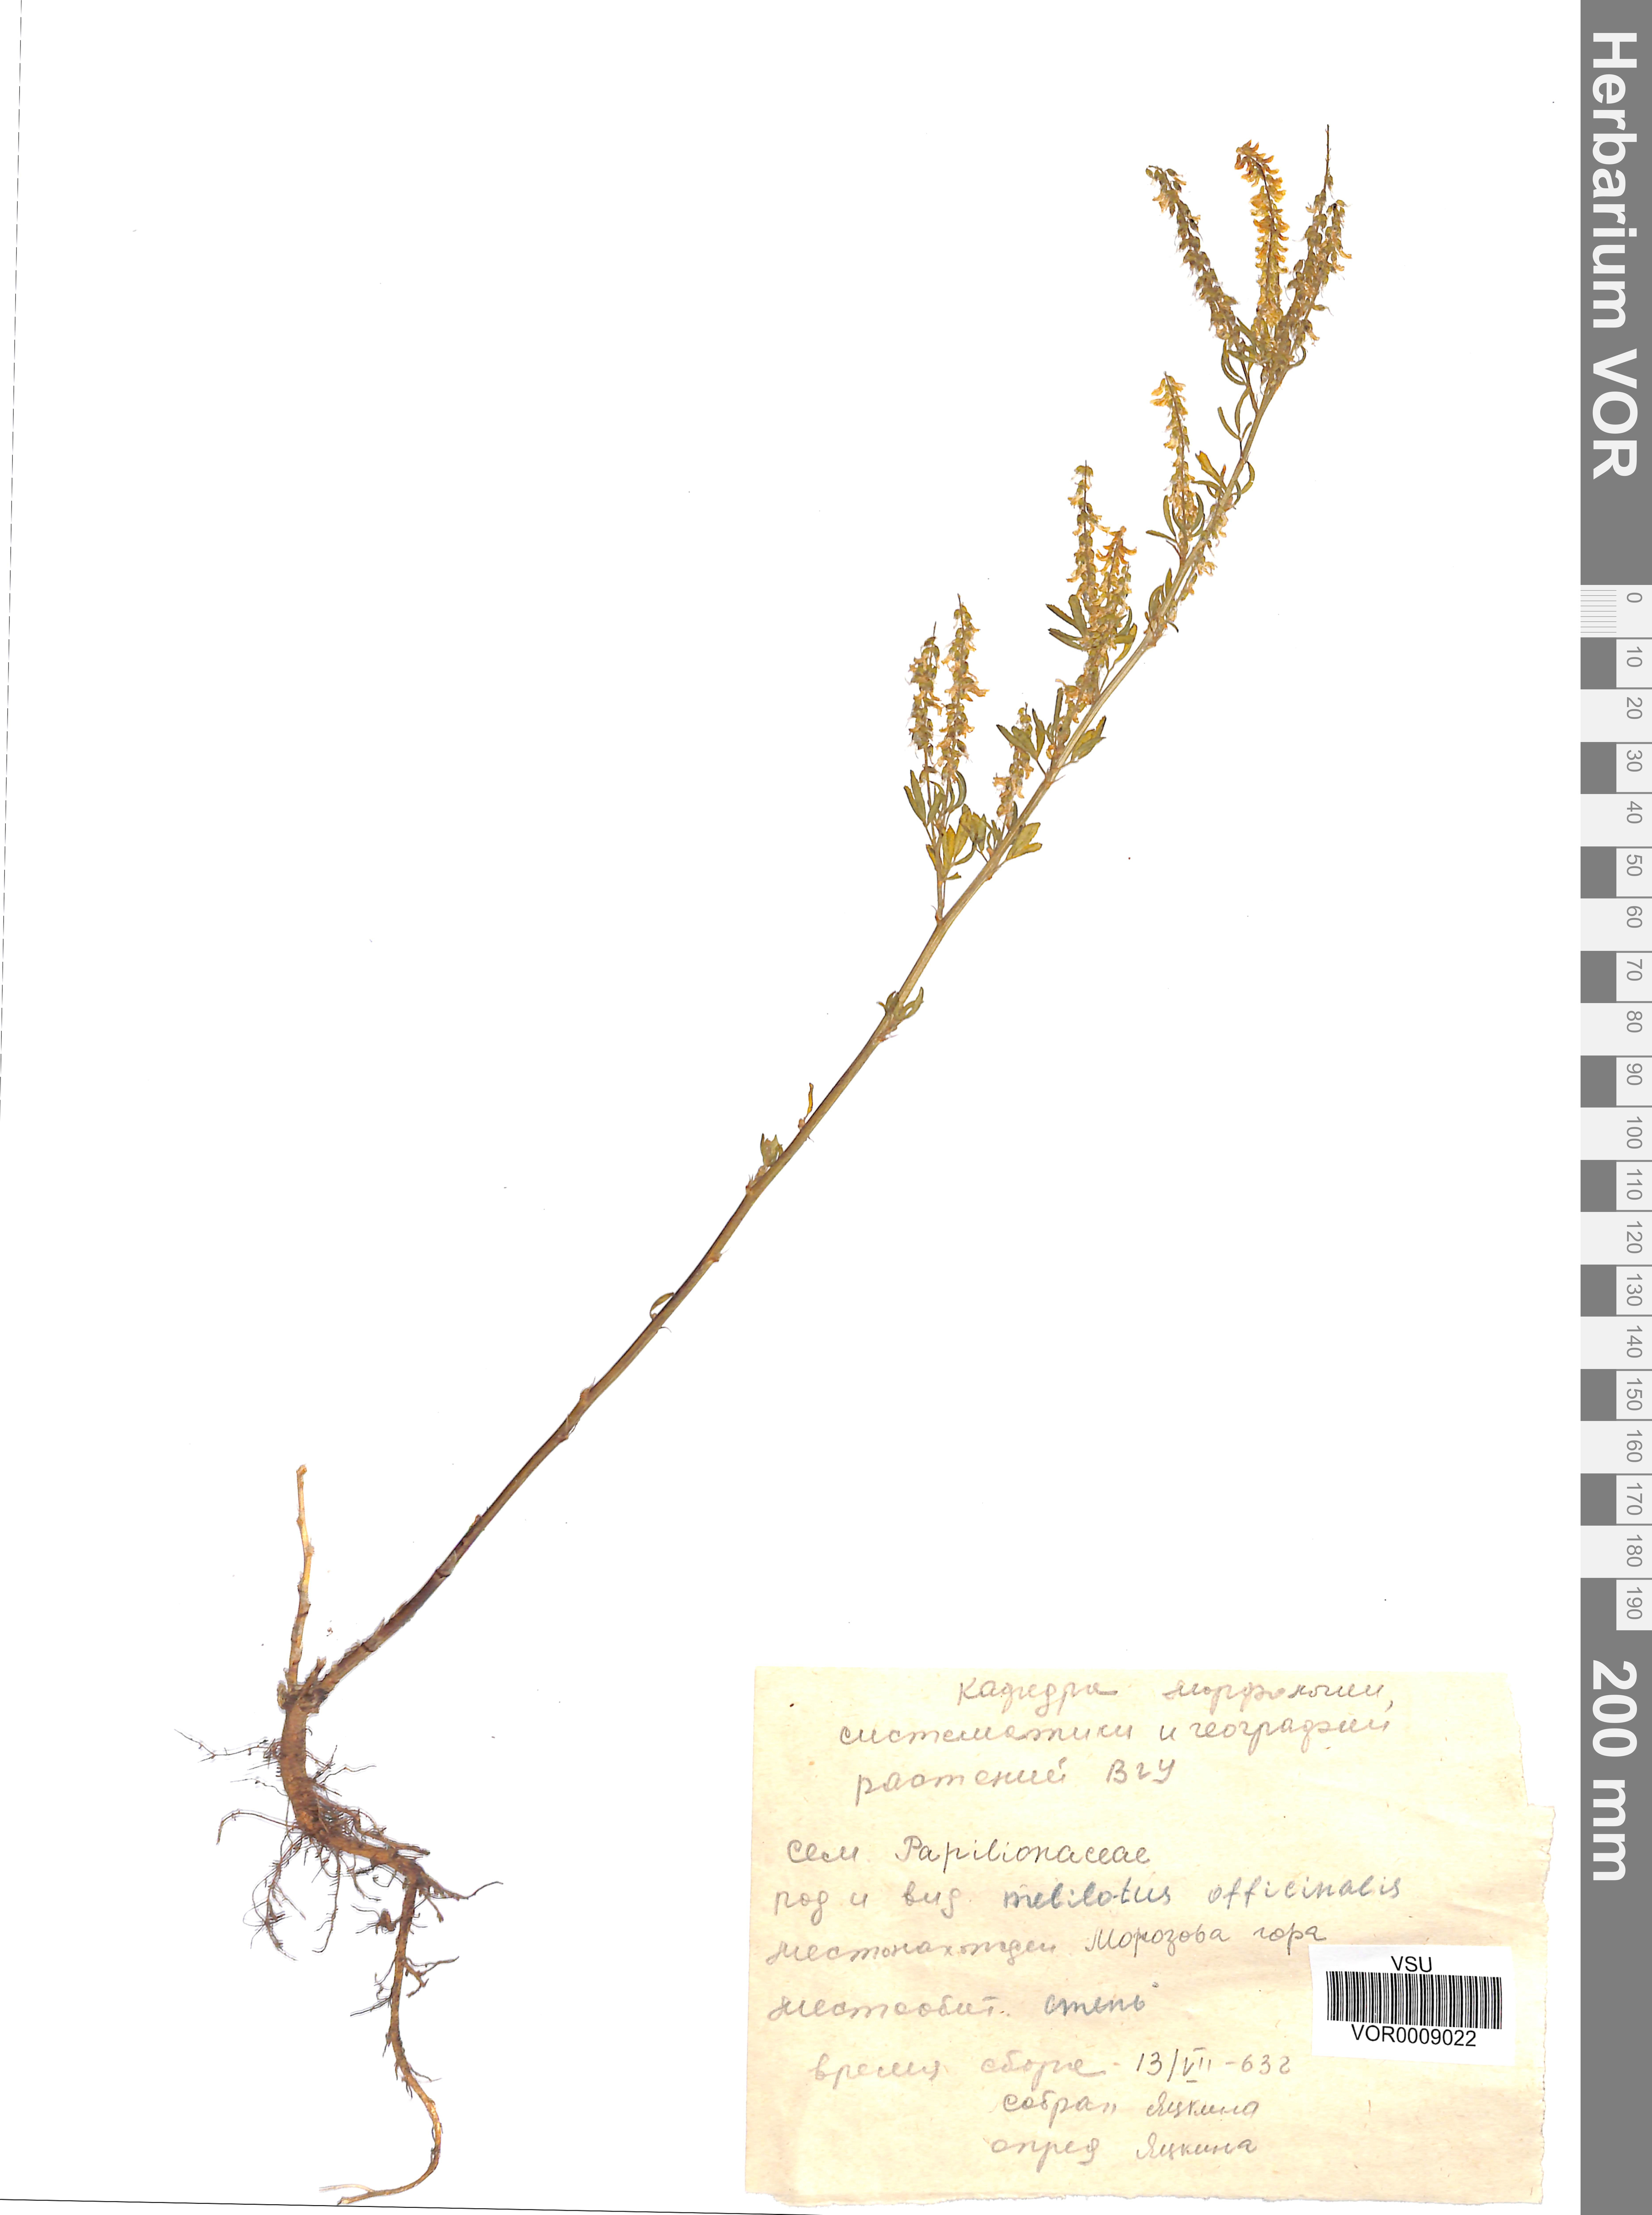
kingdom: Plantae
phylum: Tracheophyta
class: Magnoliopsida
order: Fabales
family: Fabaceae
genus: Melilotus
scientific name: Melilotus officinalis
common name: Sweetclover
